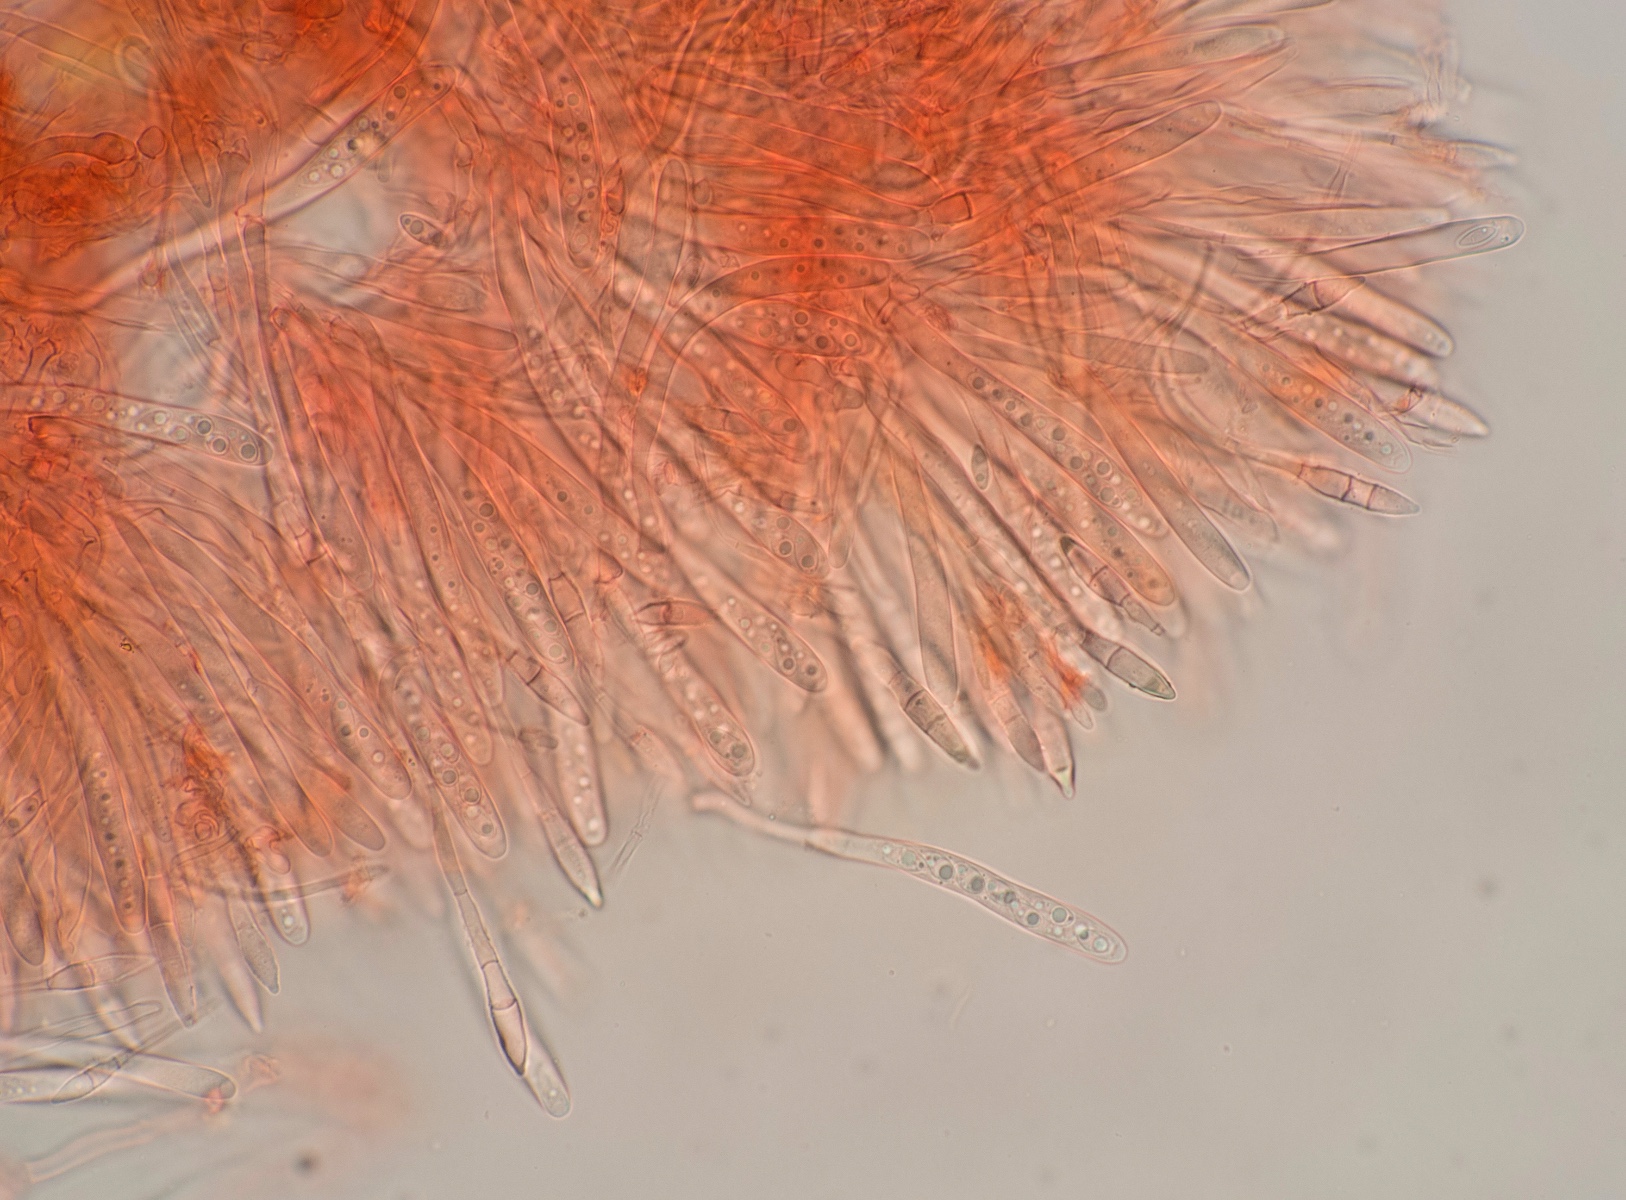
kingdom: Fungi
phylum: Ascomycota
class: Leotiomycetes
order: Helotiales
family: Cordieritidaceae
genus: Diplocarpa
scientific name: Diplocarpa bloxamii
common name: pragthårskive
